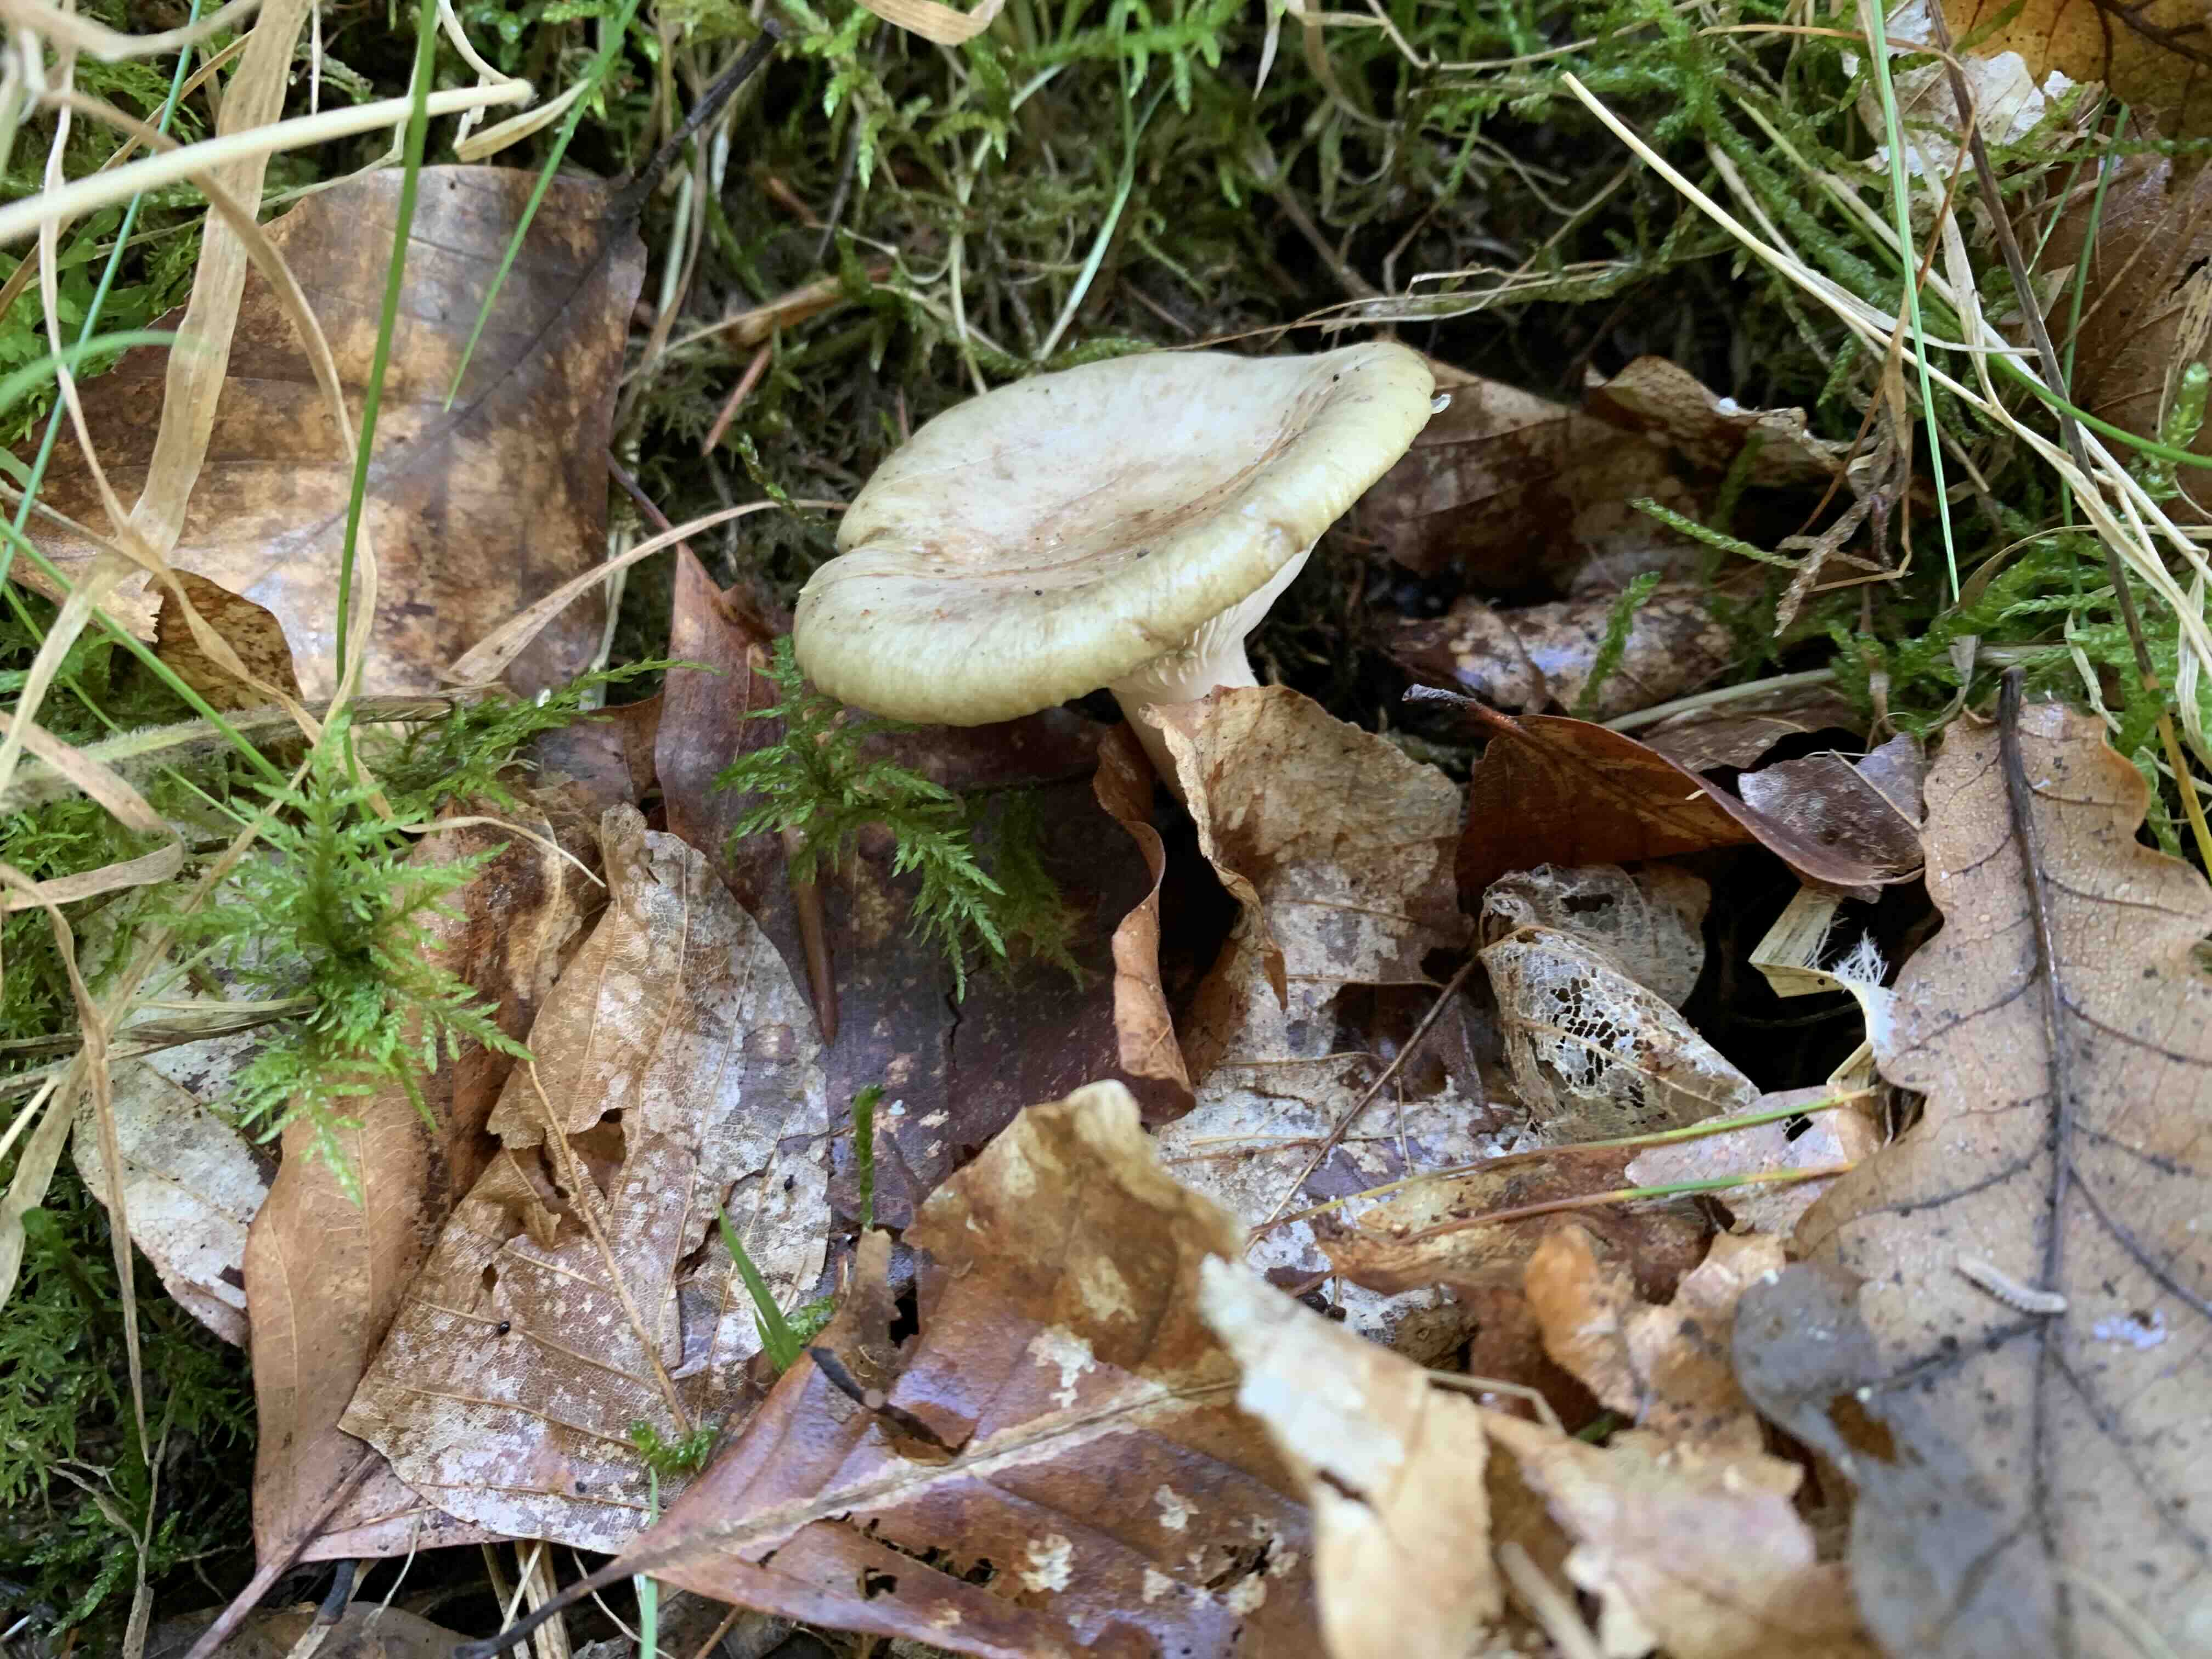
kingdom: Fungi
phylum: Basidiomycota
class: Agaricomycetes
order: Russulales
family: Russulaceae
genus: Lactarius
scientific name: Lactarius blennius
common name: dråbeplettet mælkehat
